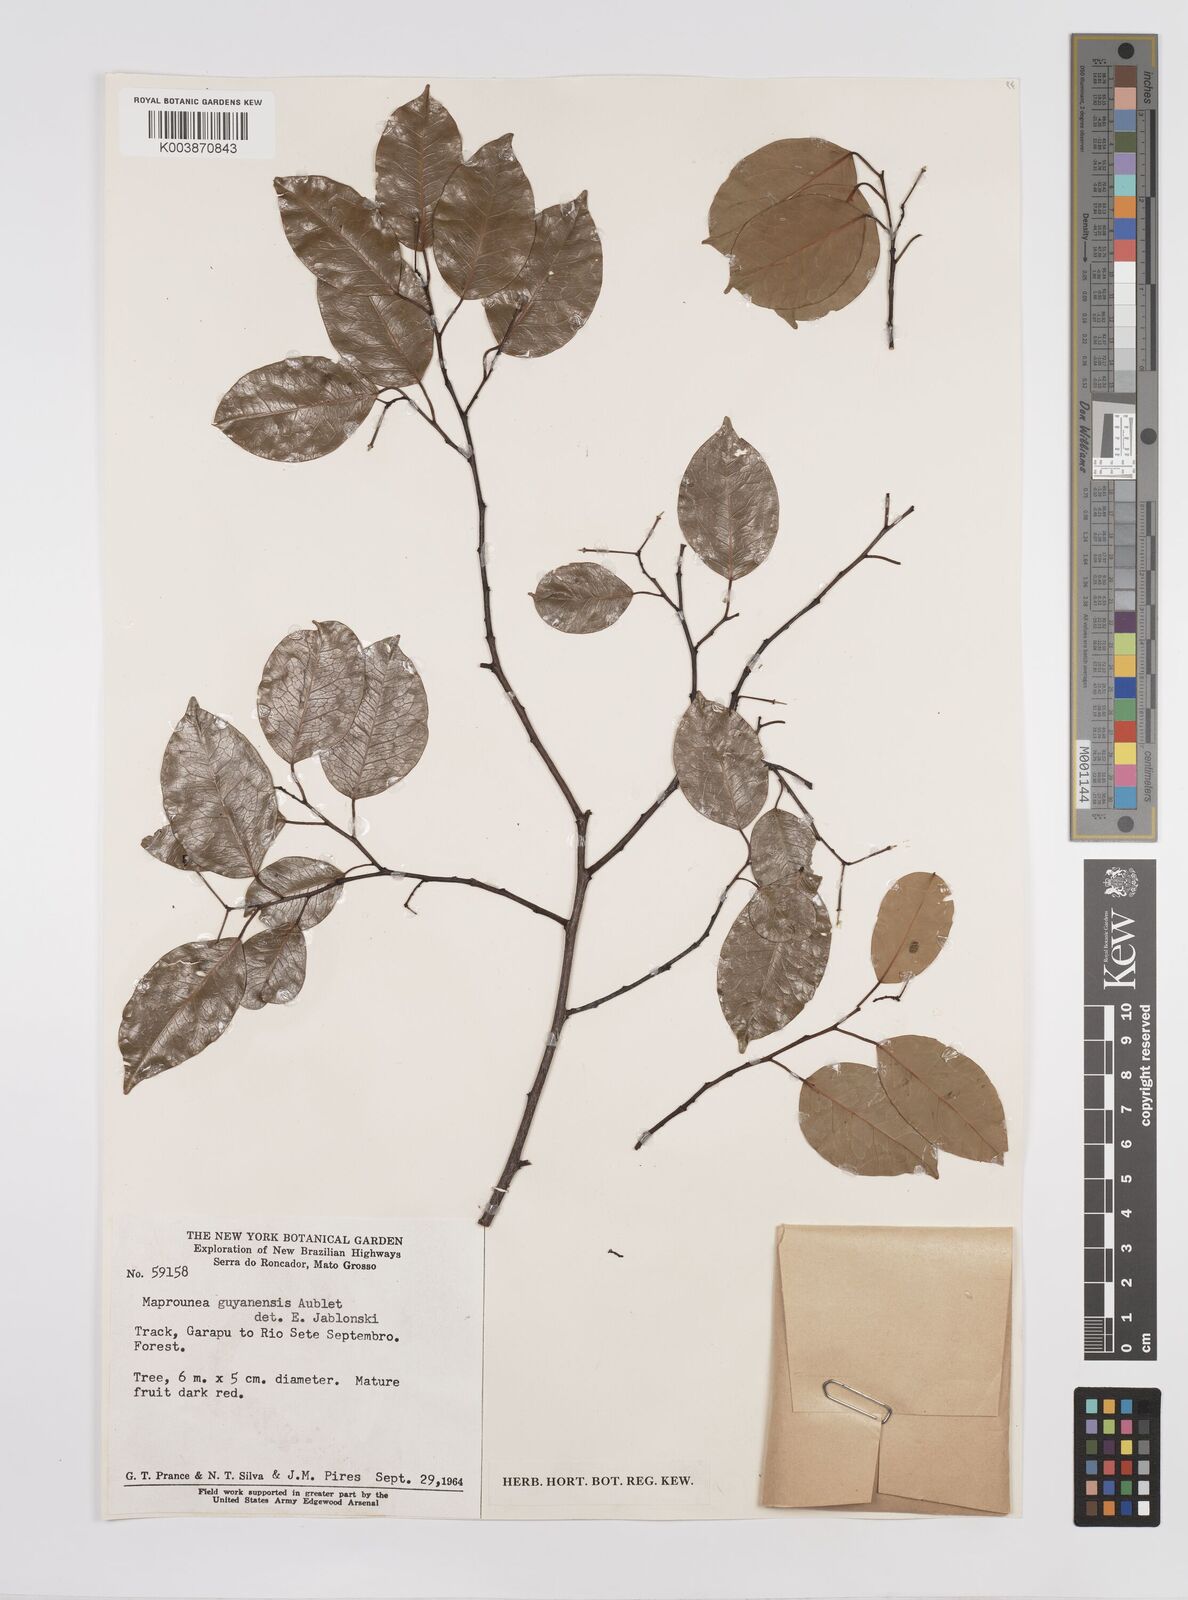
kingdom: Plantae
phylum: Tracheophyta
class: Magnoliopsida
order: Malpighiales
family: Euphorbiaceae
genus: Maprounea
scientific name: Maprounea guianensis
